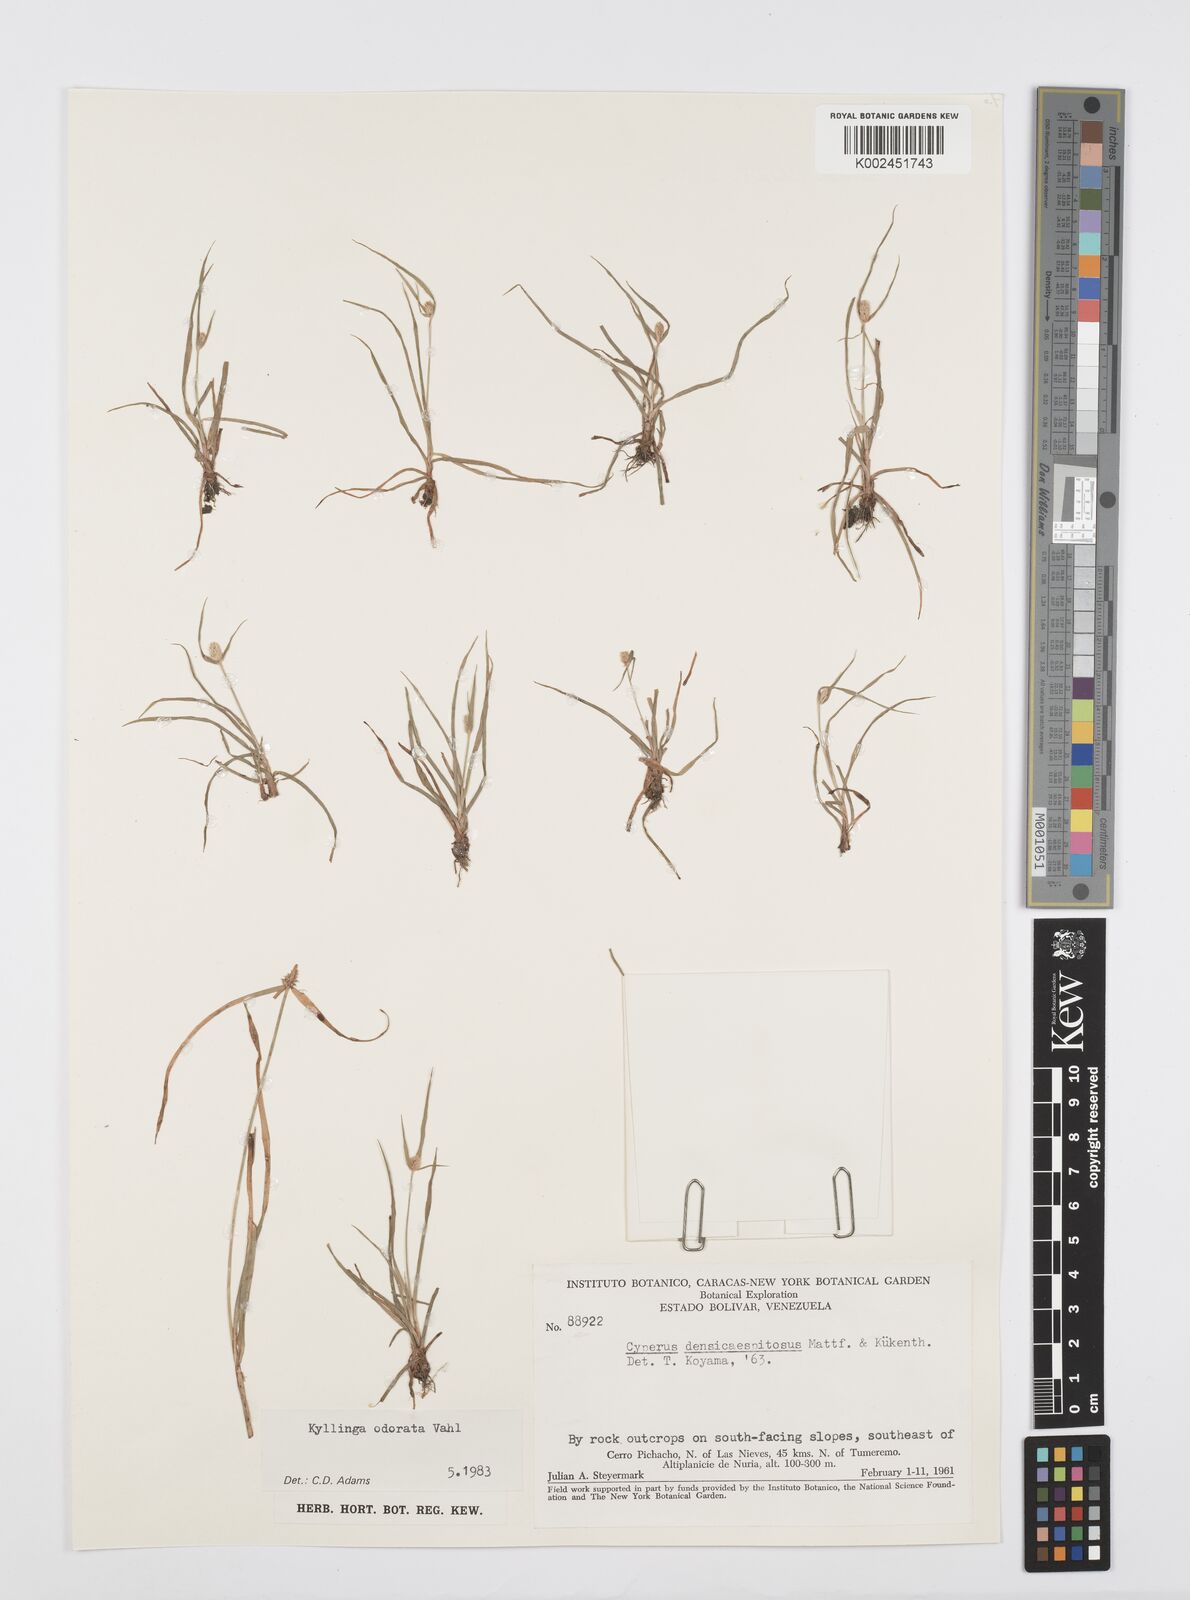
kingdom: Plantae
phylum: Tracheophyta
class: Liliopsida
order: Poales
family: Cyperaceae
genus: Cyperus
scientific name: Cyperus
